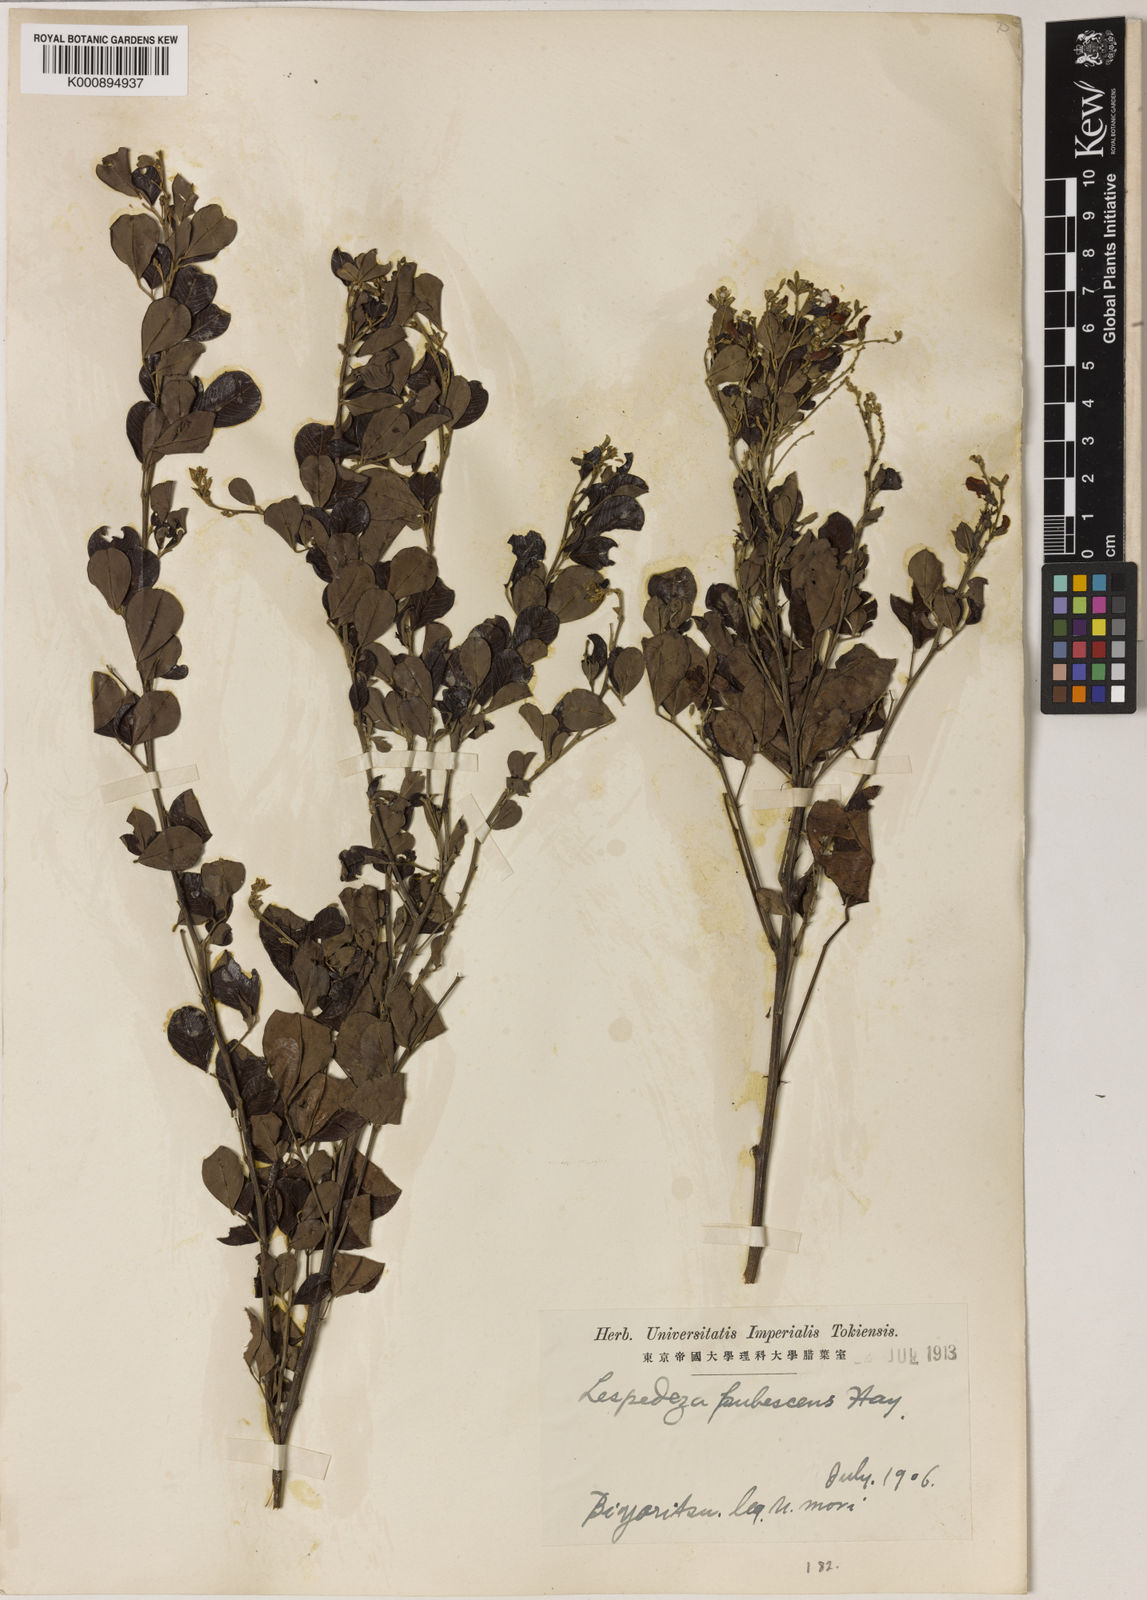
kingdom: Plantae
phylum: Tracheophyta
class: Magnoliopsida
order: Fabales
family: Fabaceae
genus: Lespedeza
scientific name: Lespedeza thunbergii
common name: Thunberg's lespedeza
